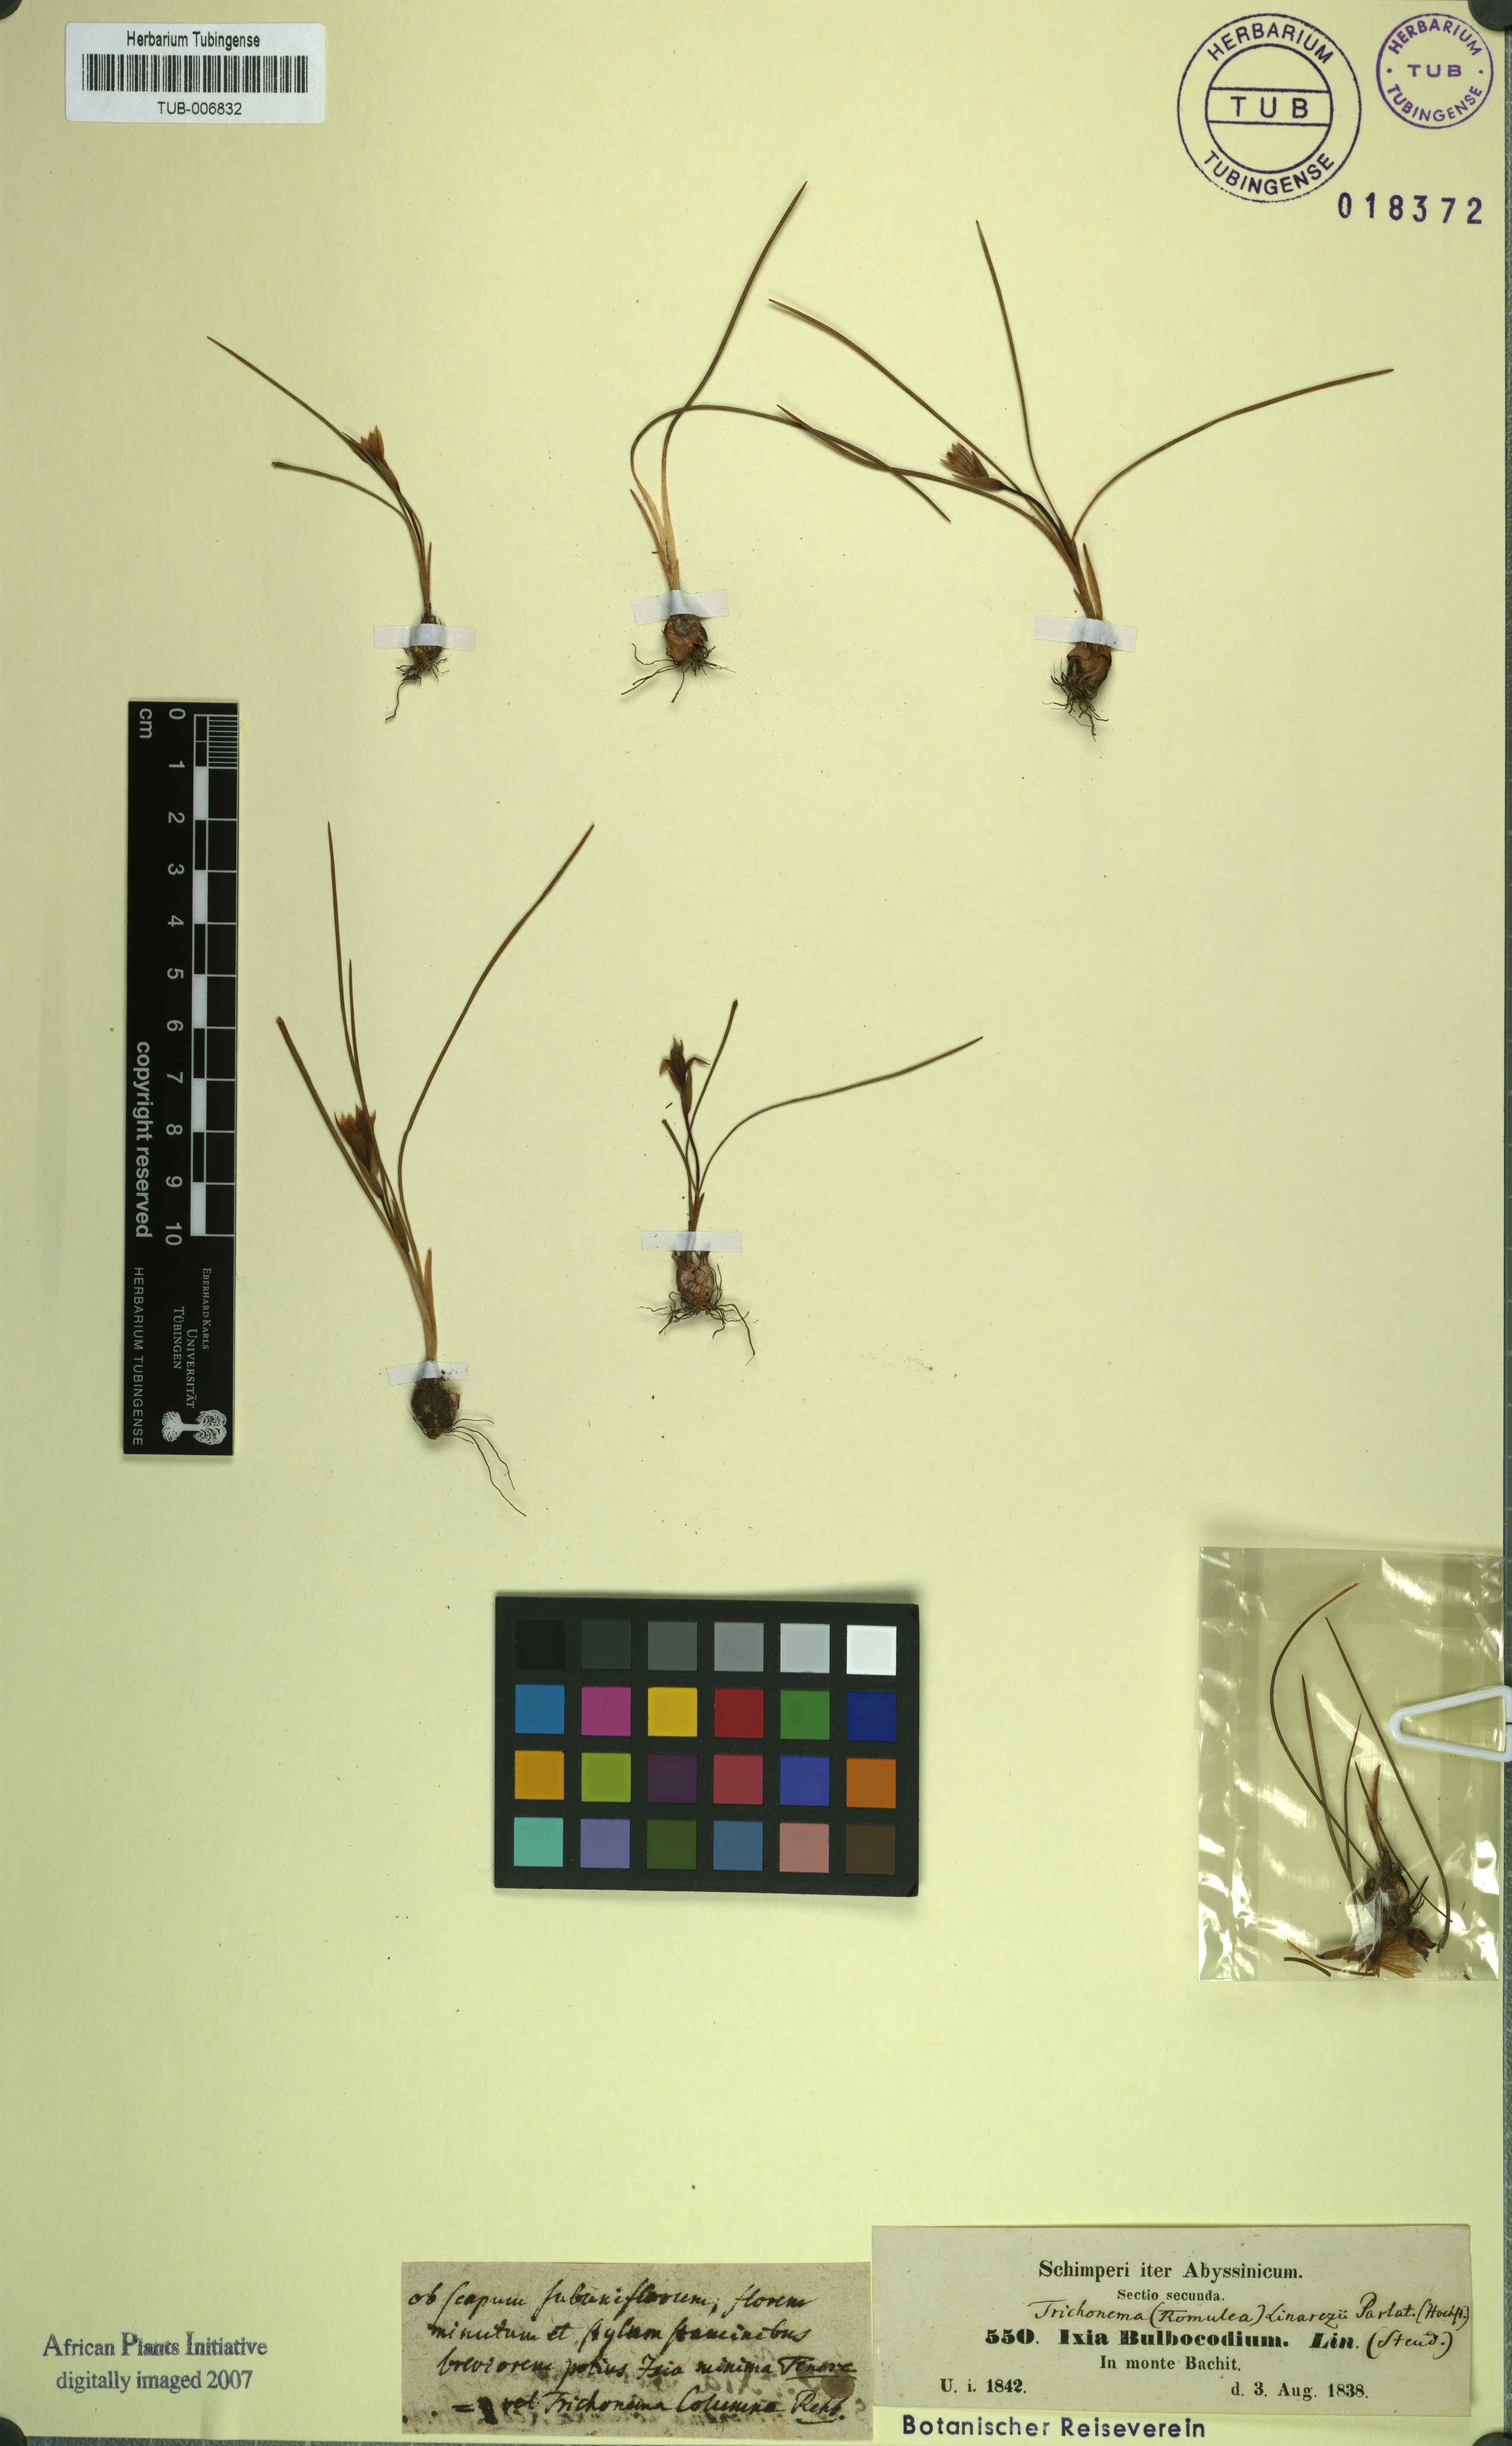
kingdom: Plantae
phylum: Tracheophyta
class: Liliopsida
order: Asparagales
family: Iridaceae
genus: Romulea
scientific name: Romulea linaresii
